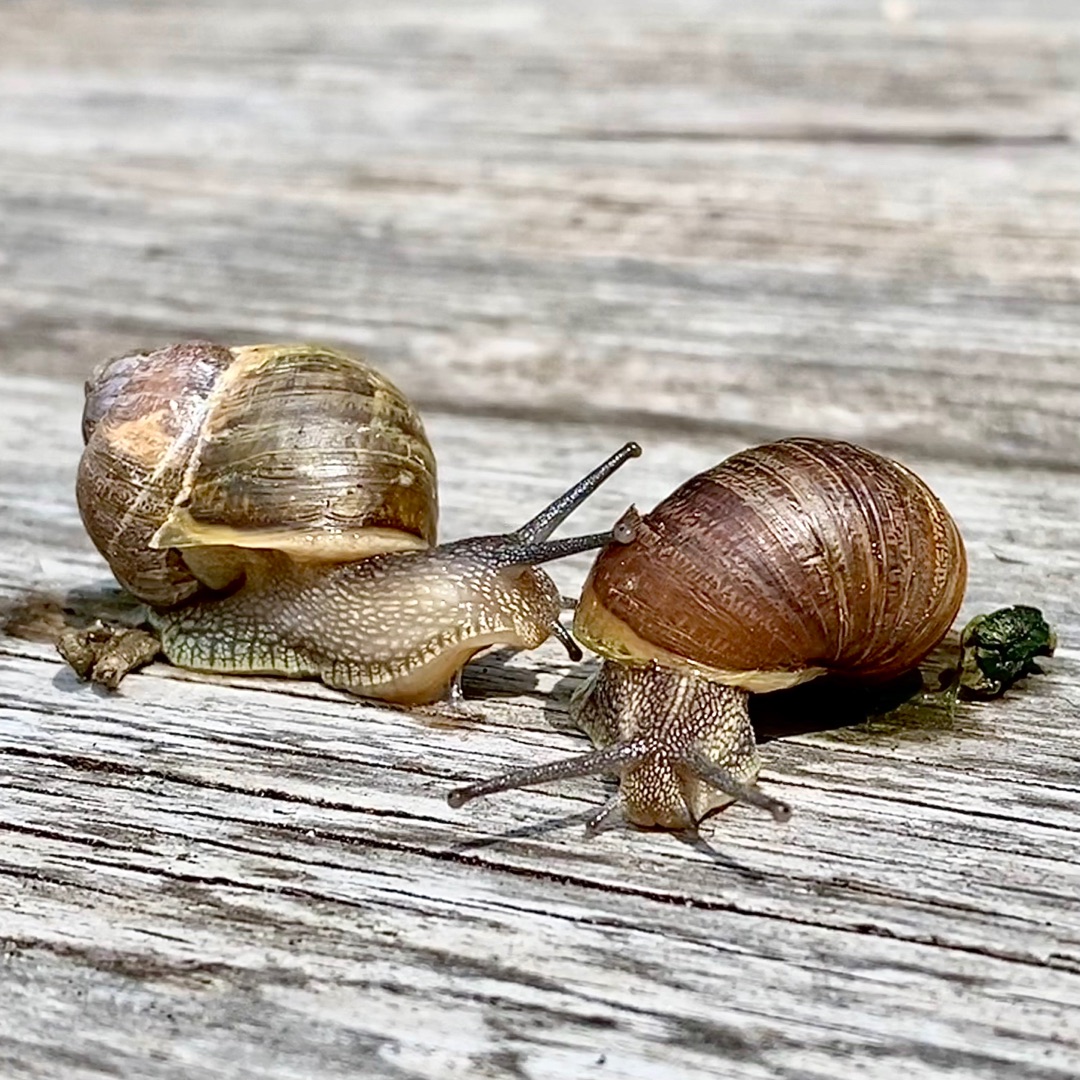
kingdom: Animalia
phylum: Mollusca
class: Gastropoda
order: Stylommatophora
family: Helicidae
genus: Helix
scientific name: Helix pomatia
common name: Vinbjergsnegl
